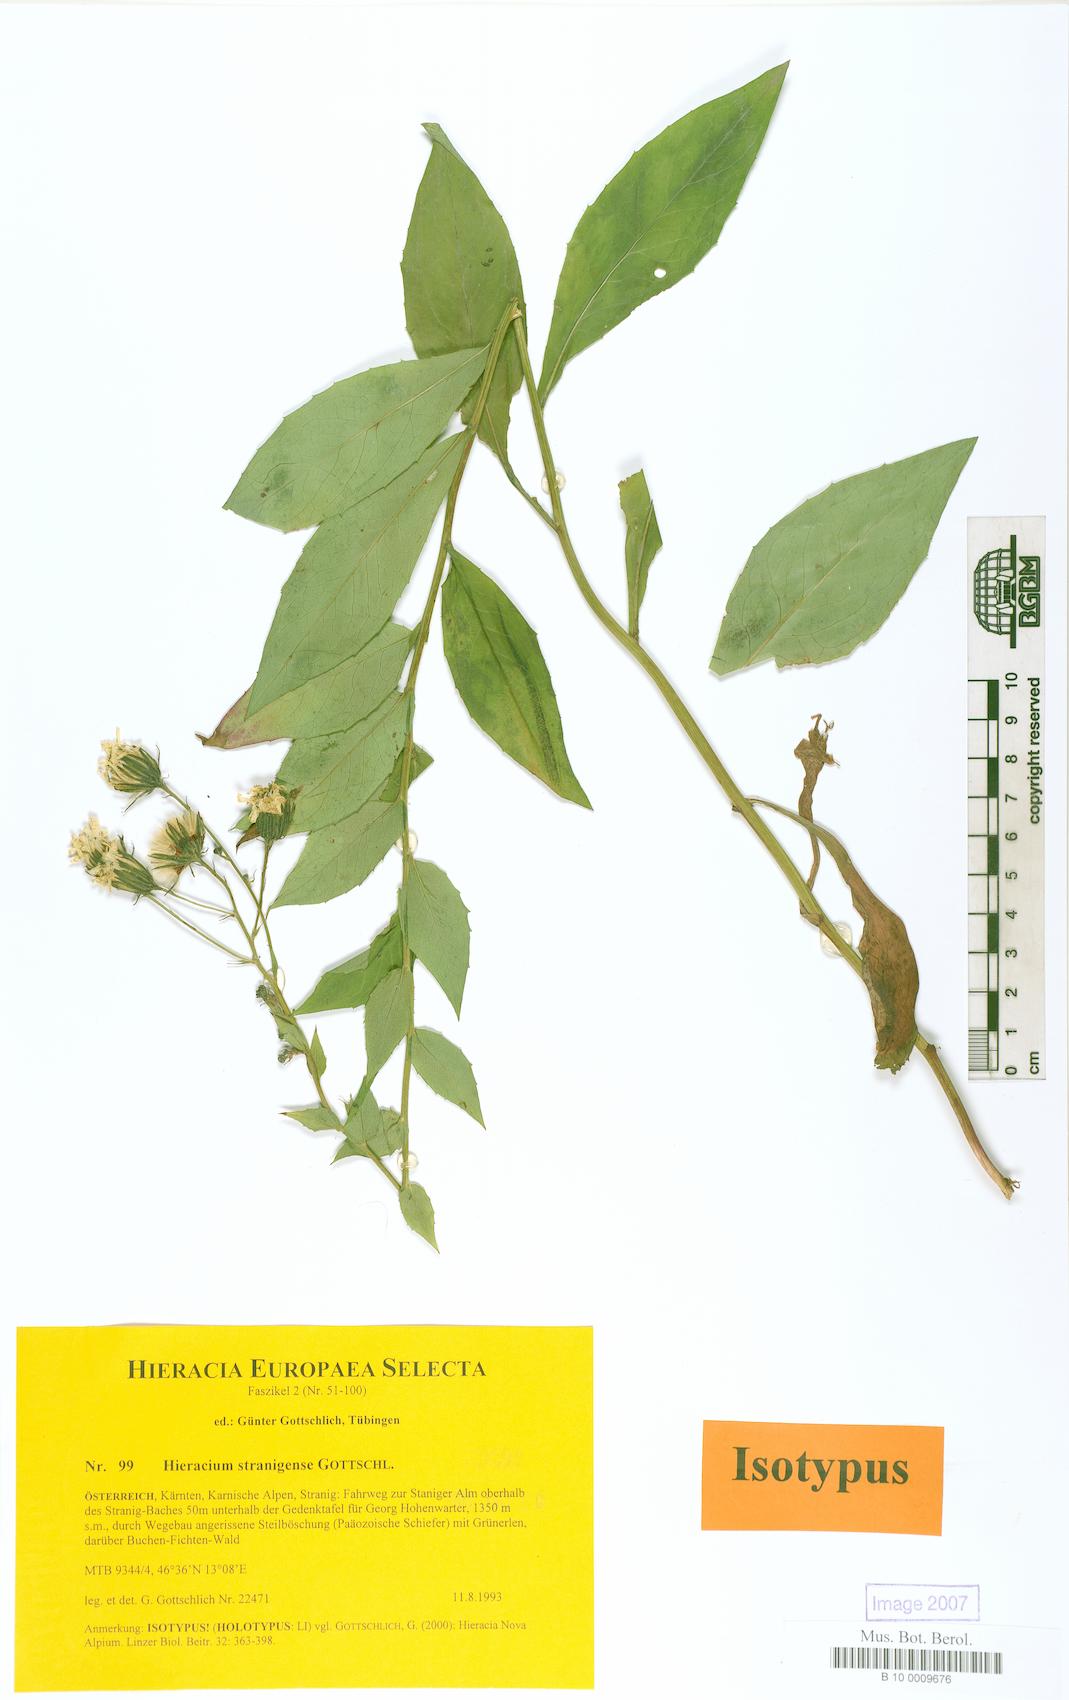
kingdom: Plantae
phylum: Tracheophyta
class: Magnoliopsida
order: Asterales
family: Asteraceae
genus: Hieracium
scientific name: Hieracium stranigense
